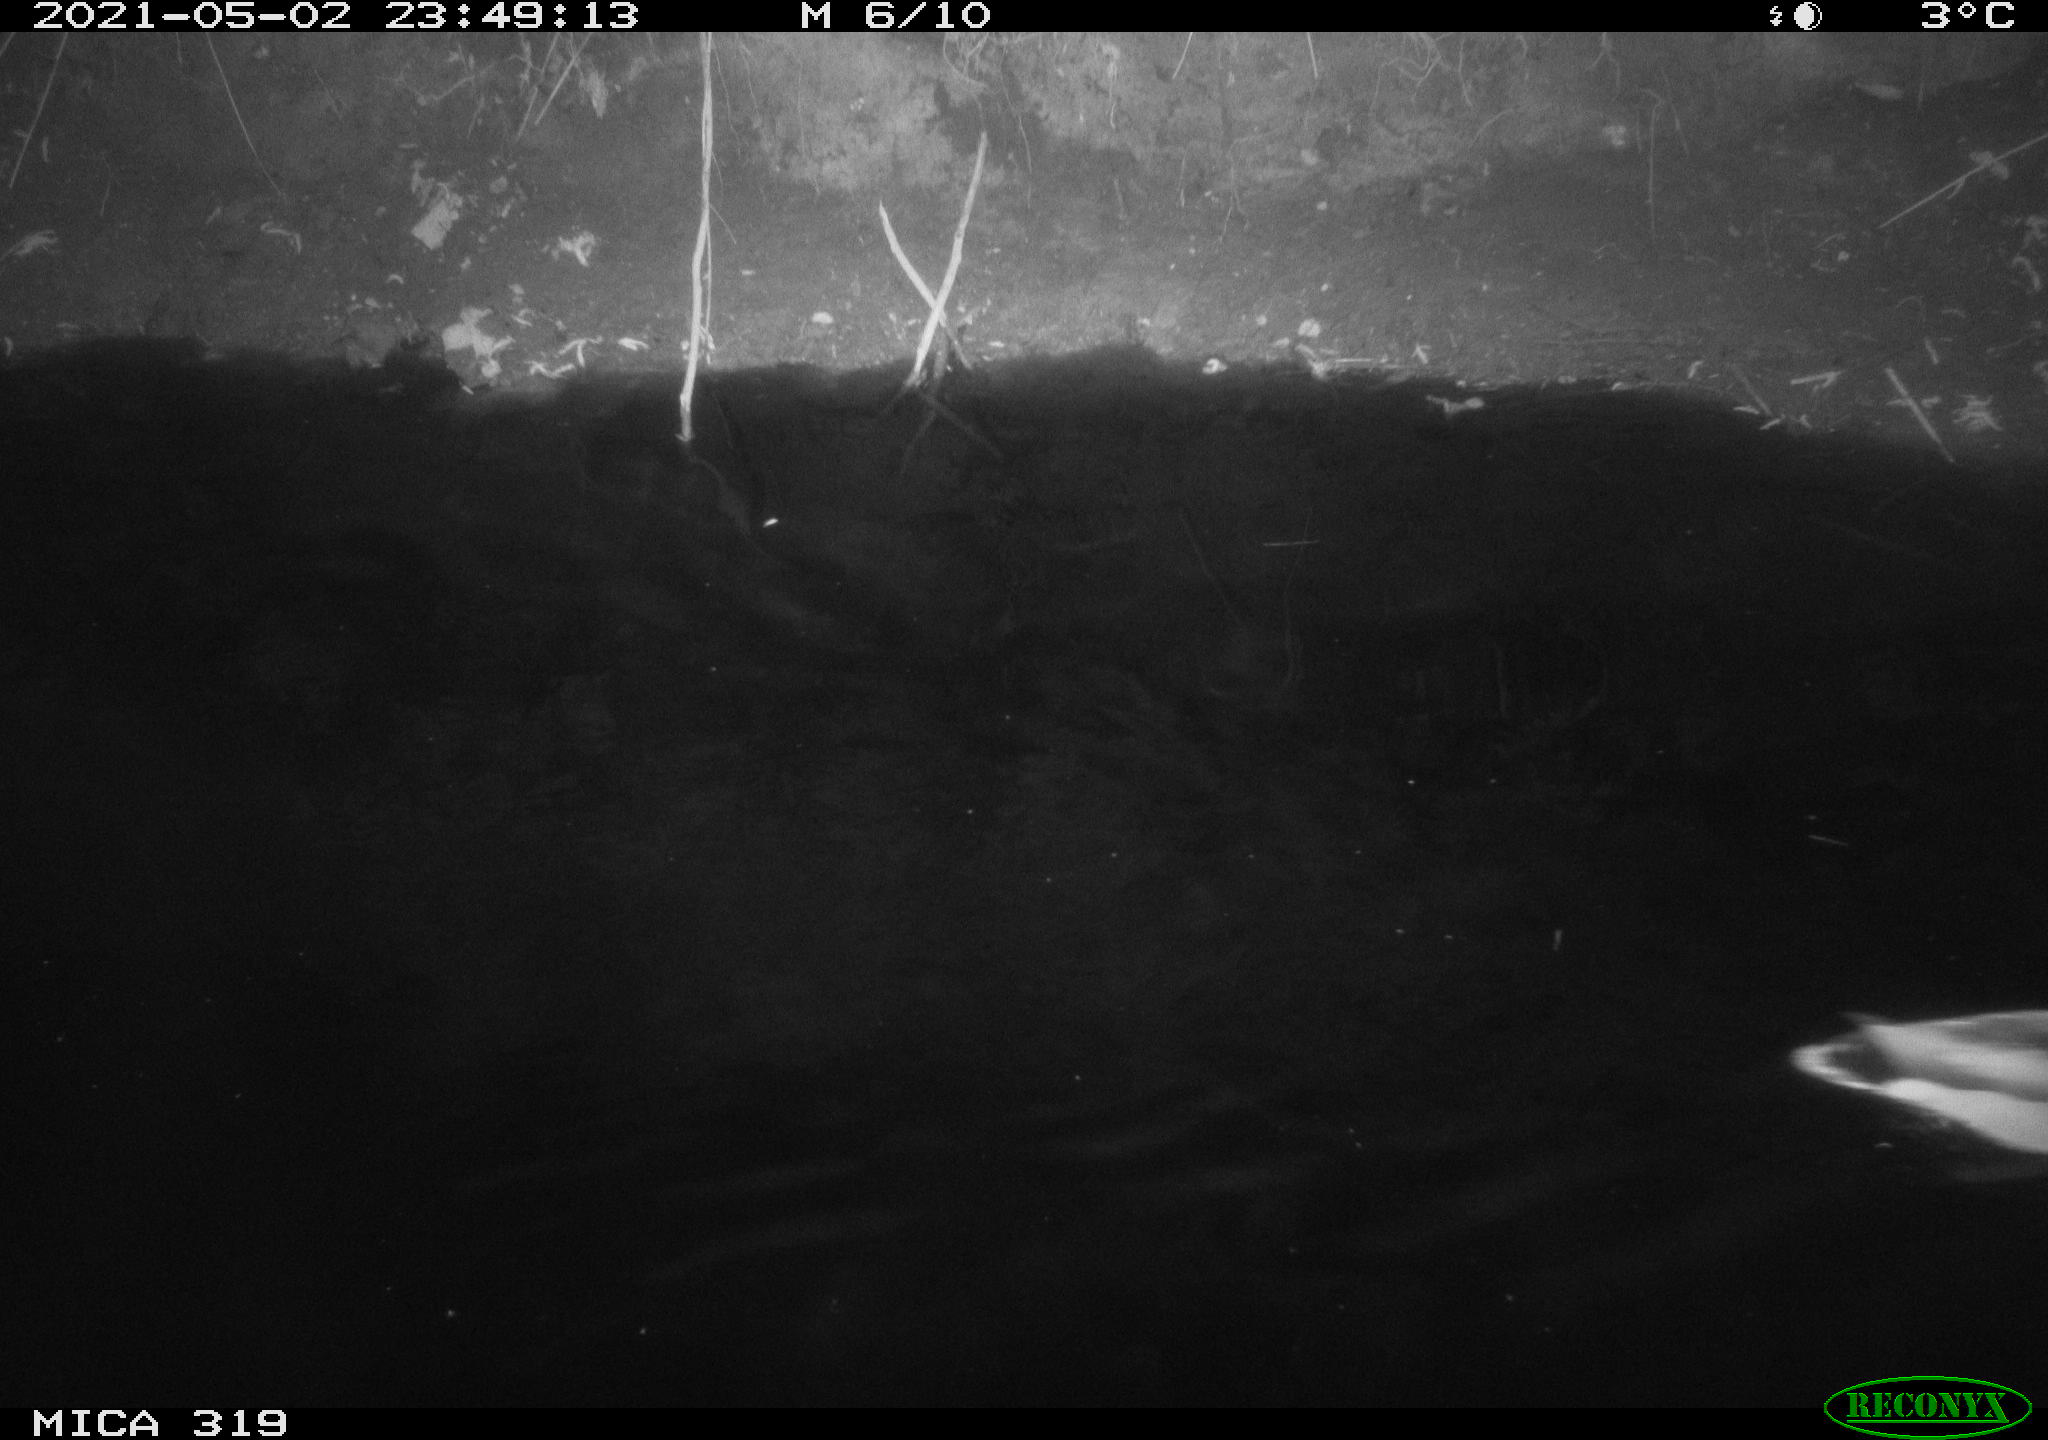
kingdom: Animalia
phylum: Chordata
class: Aves
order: Anseriformes
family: Anatidae
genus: Anas
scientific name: Anas platyrhynchos
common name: Mallard
